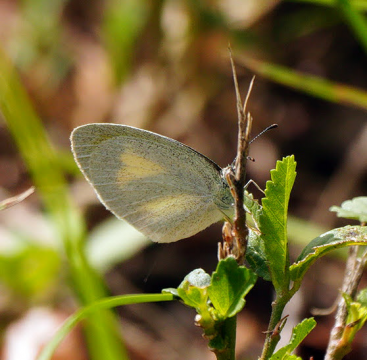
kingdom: Animalia
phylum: Arthropoda
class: Insecta
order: Lepidoptera
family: Pieridae
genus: Eurema
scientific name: Eurema daira
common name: Barred Yellow
